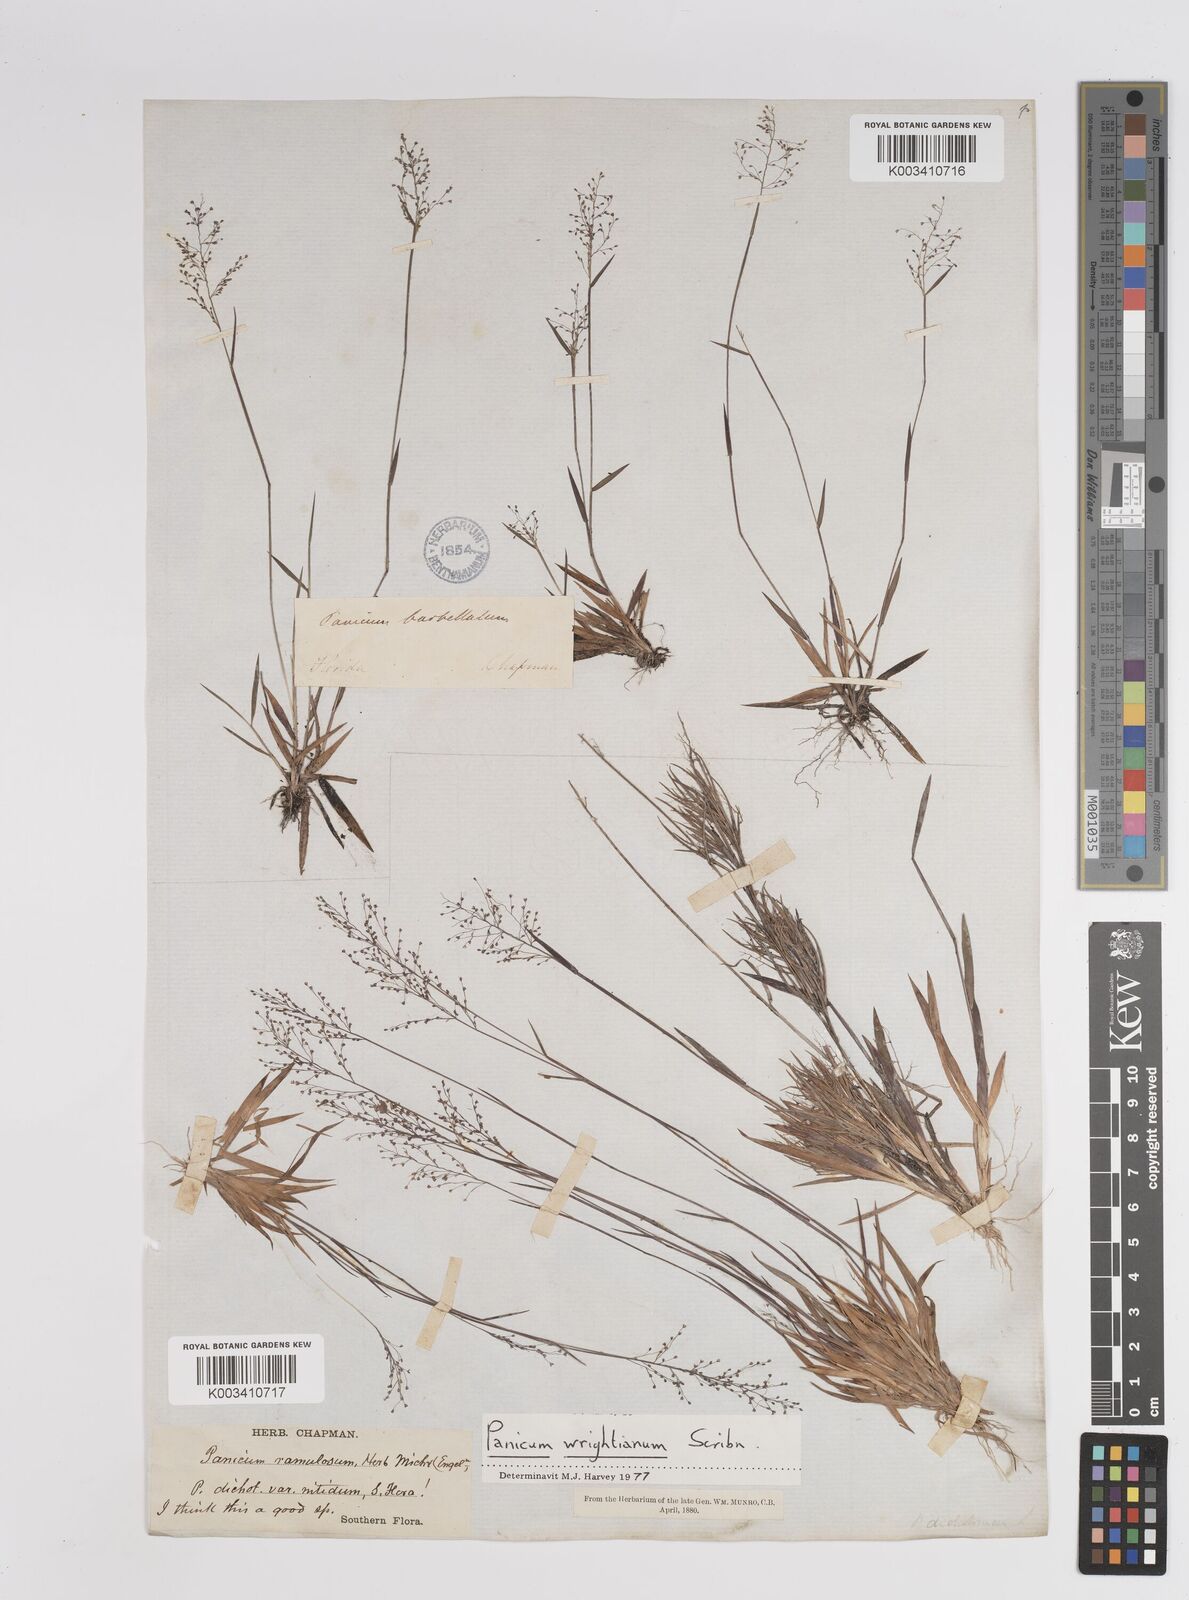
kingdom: Plantae
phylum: Tracheophyta
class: Liliopsida
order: Poales
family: Poaceae
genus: Dichanthelium
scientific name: Dichanthelium wrightianum
